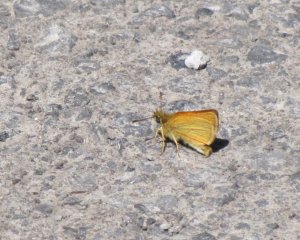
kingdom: Animalia
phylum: Arthropoda
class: Insecta
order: Lepidoptera
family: Hesperiidae
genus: Thymelicus
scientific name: Thymelicus lineola
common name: European Skipper
